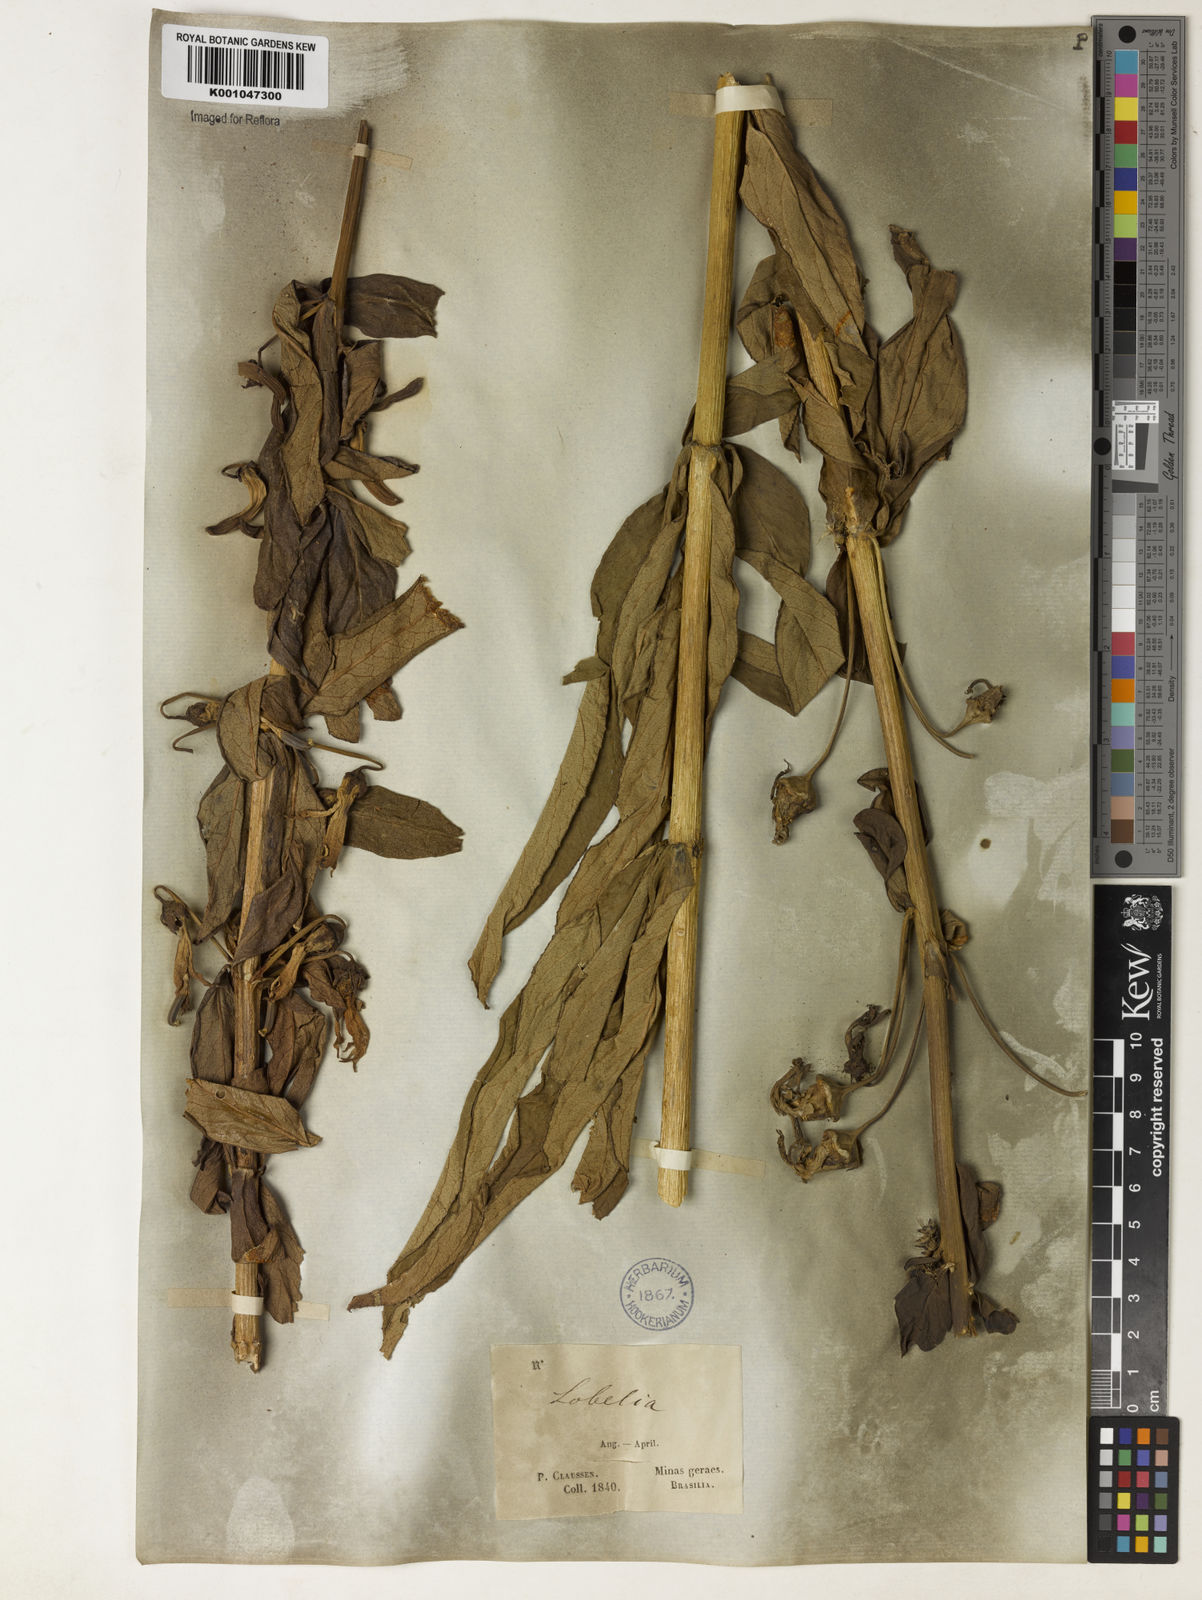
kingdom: Plantae
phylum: Tracheophyta
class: Magnoliopsida
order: Asterales
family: Campanulaceae
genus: Siphocampylus
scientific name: Siphocampylus verticillatus
